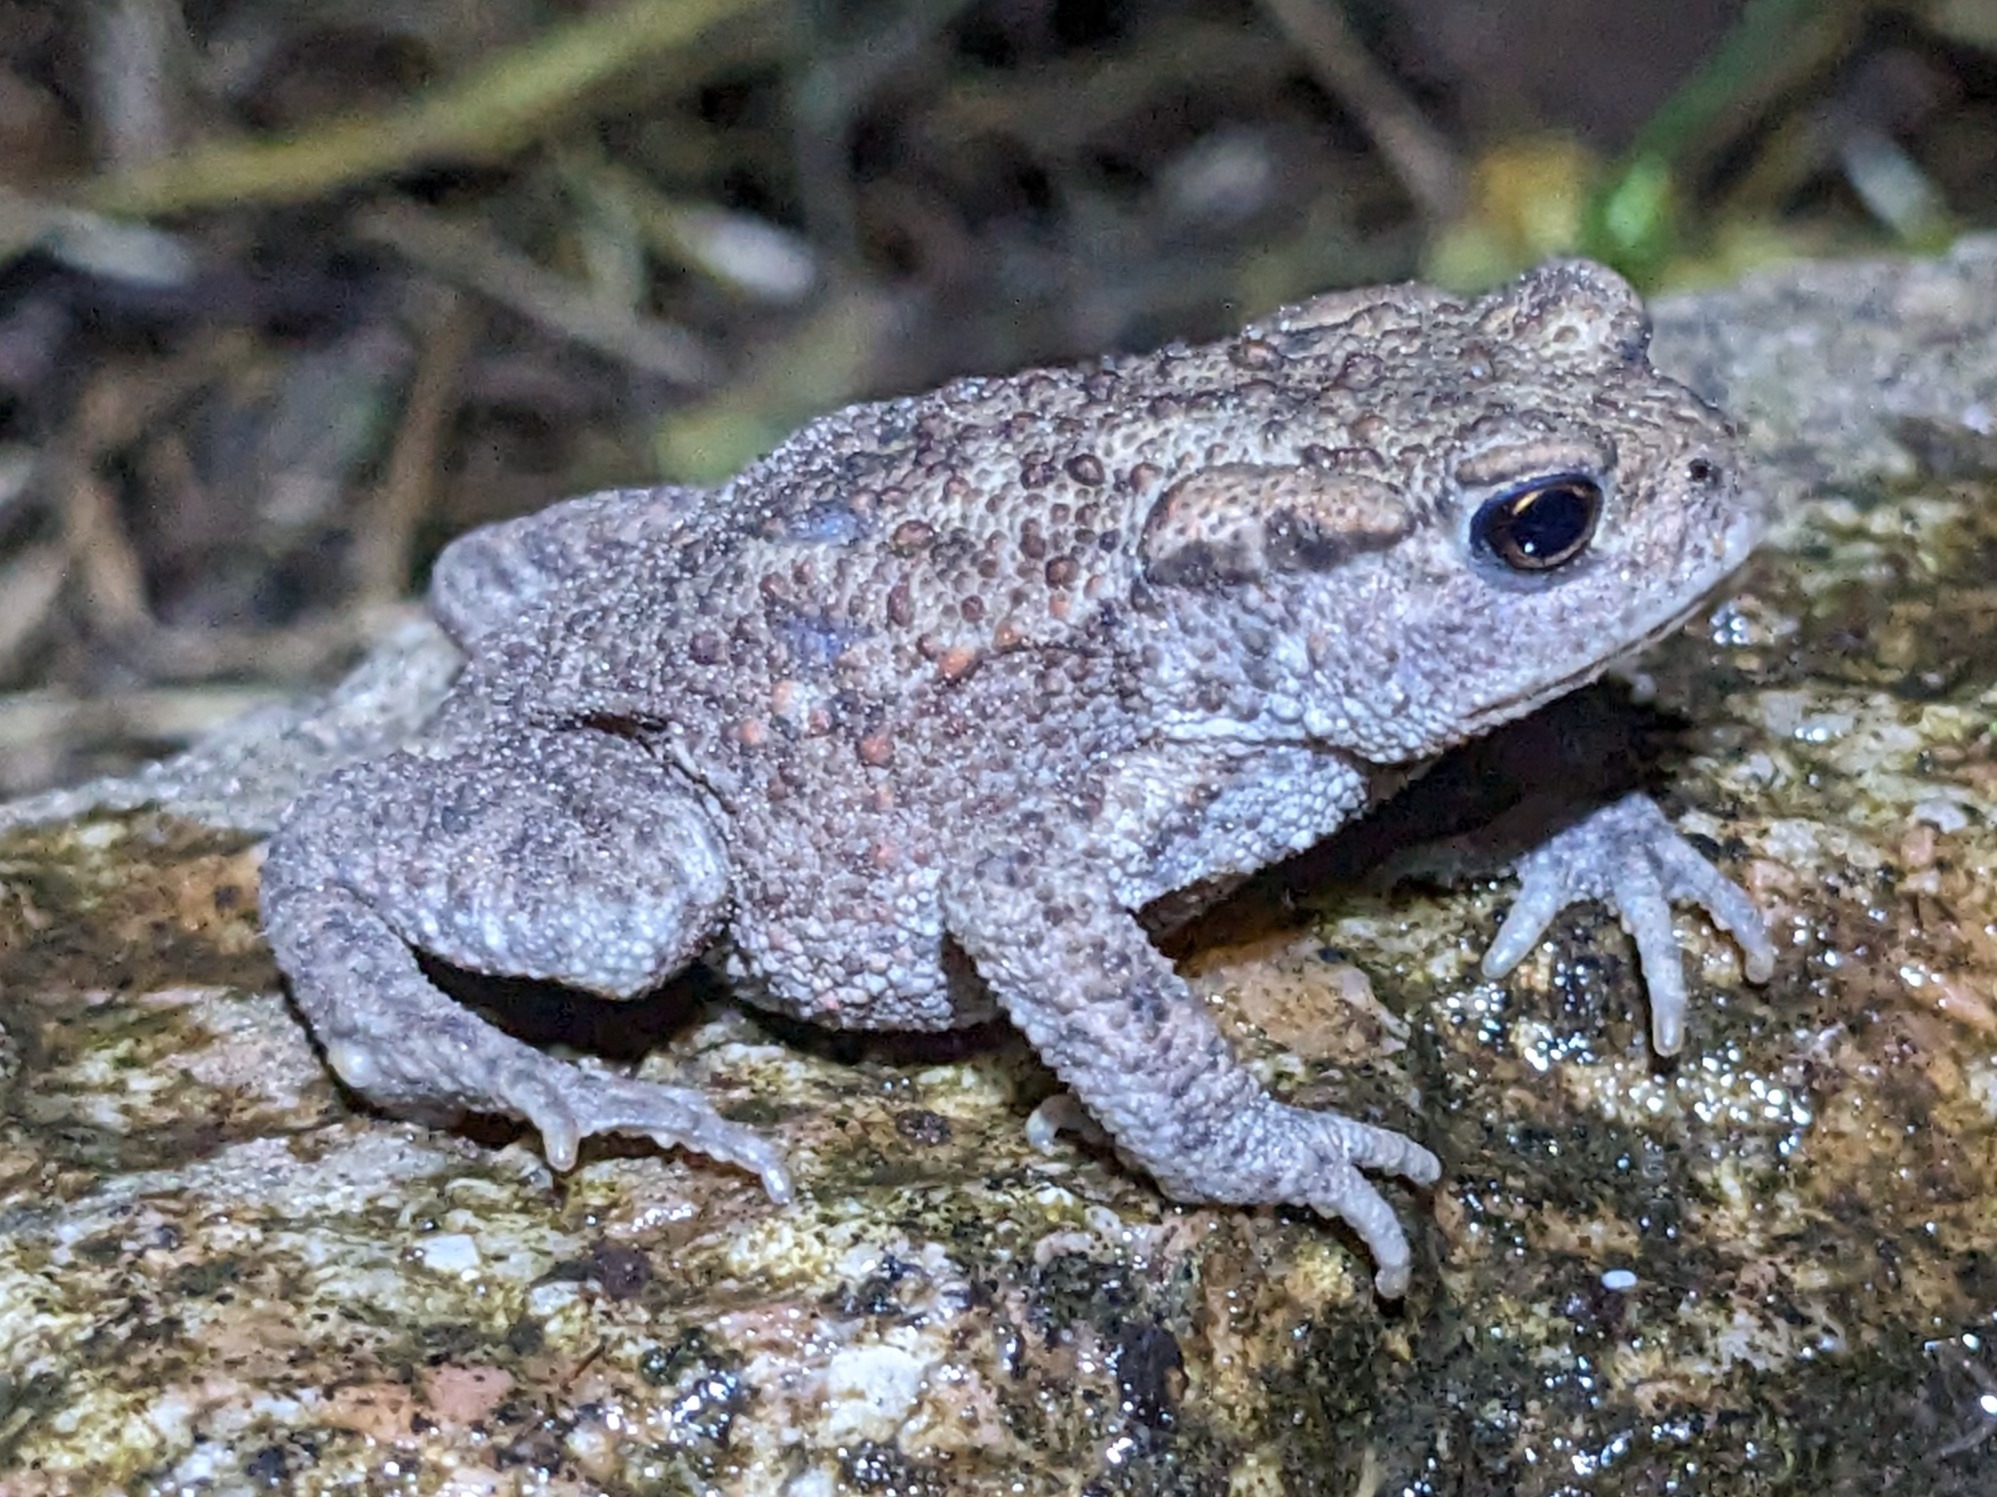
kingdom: Animalia
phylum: Chordata
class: Amphibia
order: Anura
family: Bufonidae
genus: Bufo
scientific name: Bufo bufo
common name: Skrubtudse
